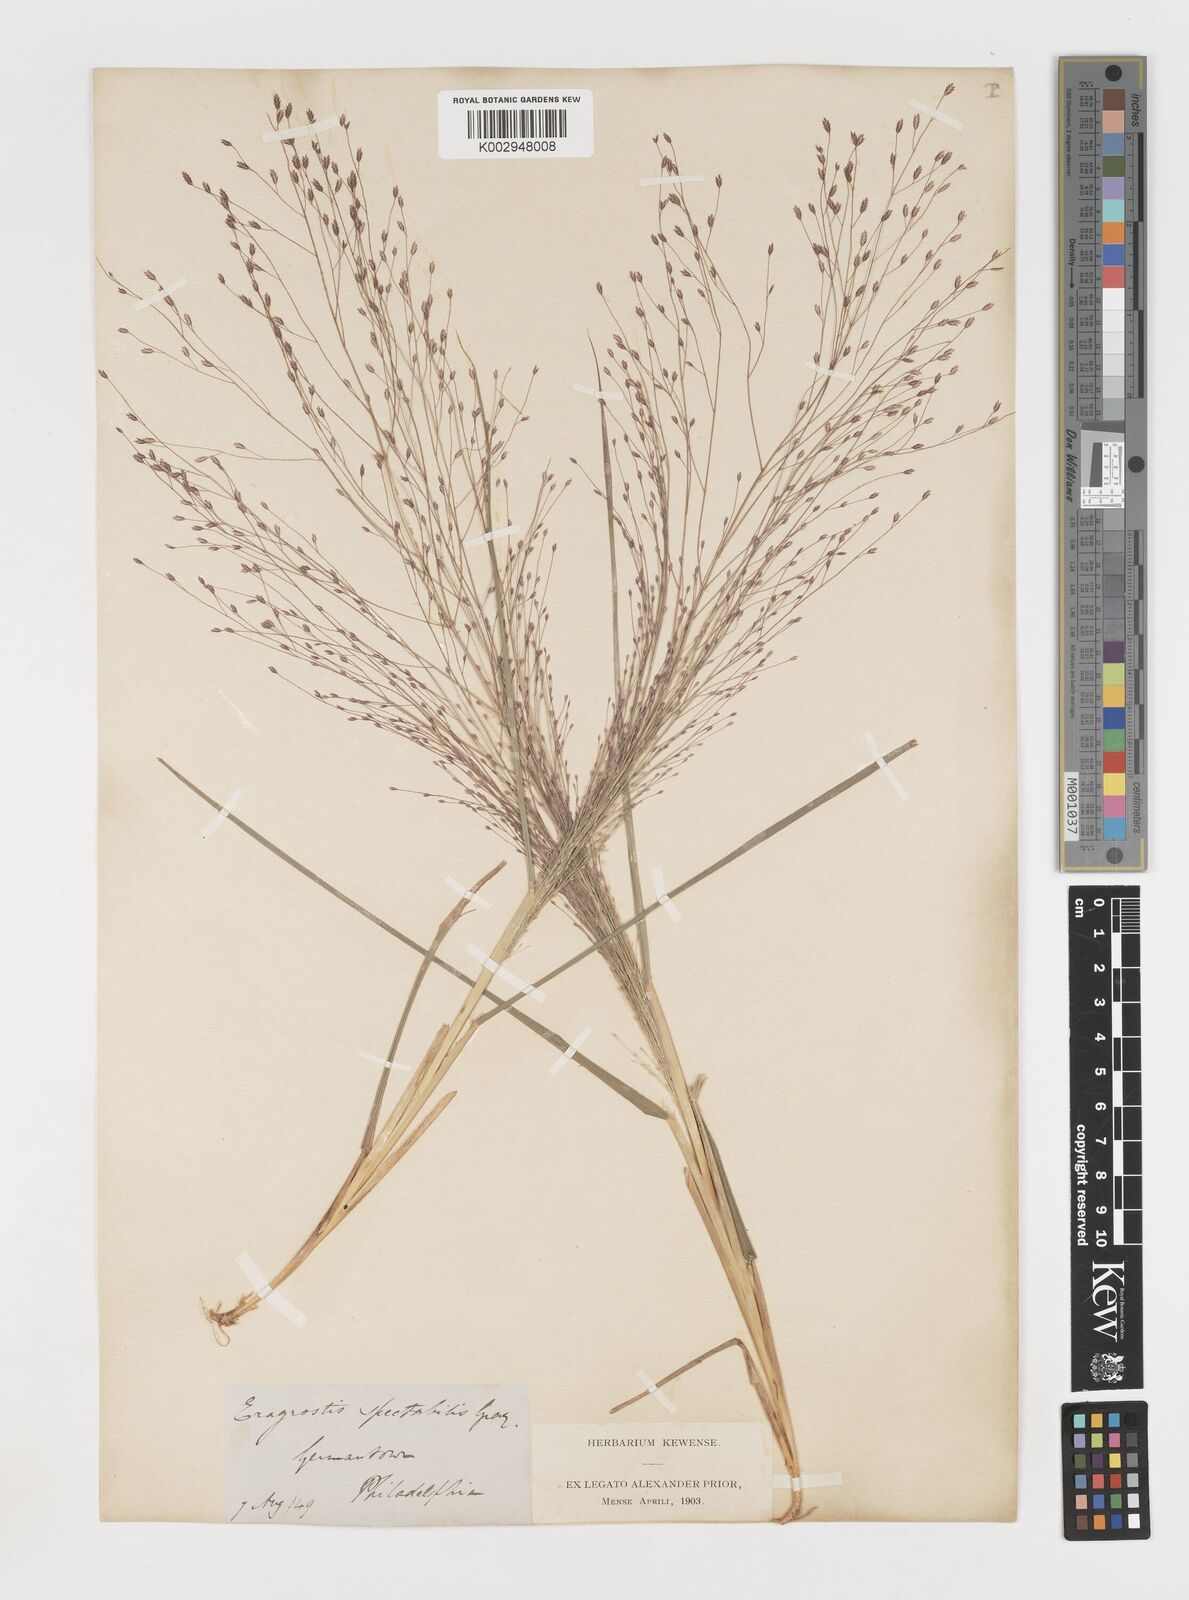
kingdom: Plantae
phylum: Tracheophyta
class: Liliopsida
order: Poales
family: Poaceae
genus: Eragrostis
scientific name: Eragrostis spectabilis
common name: Petticoat-climber
